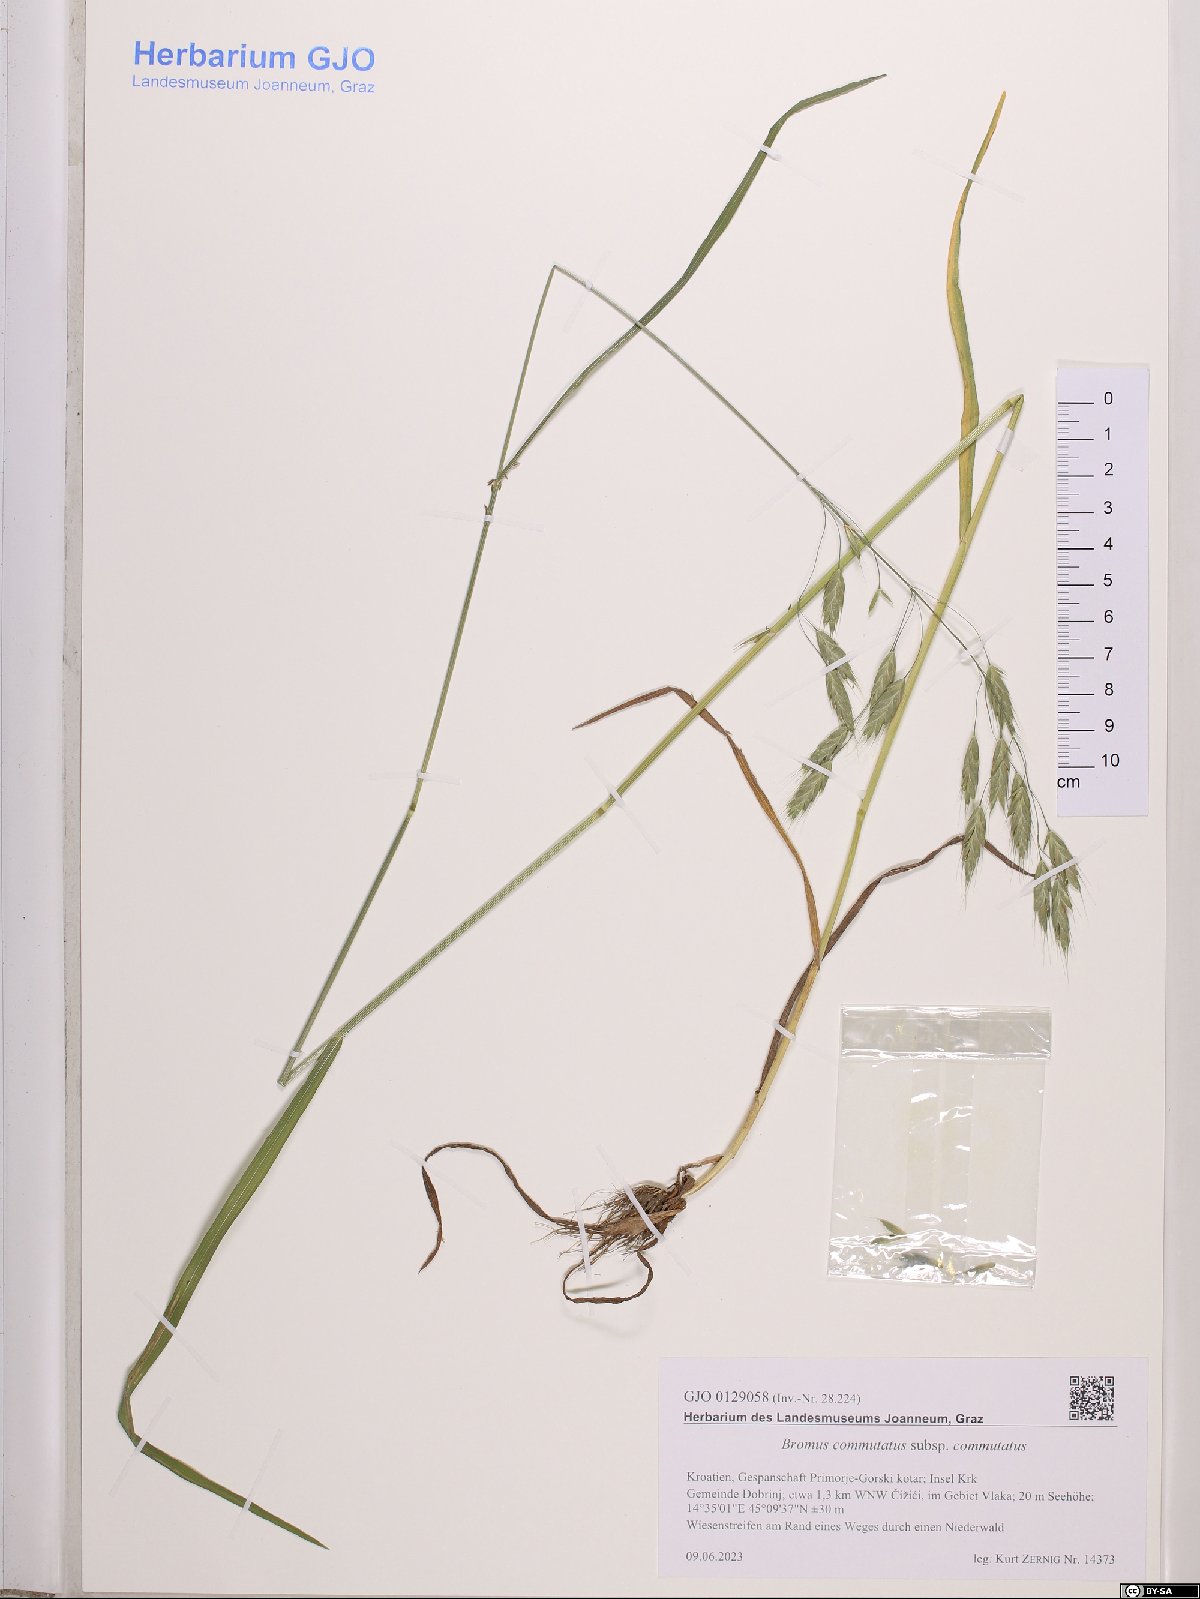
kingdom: Plantae
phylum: Tracheophyta
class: Liliopsida
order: Poales
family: Poaceae
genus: Bromus
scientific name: Bromus commutatus
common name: Meadow brome
